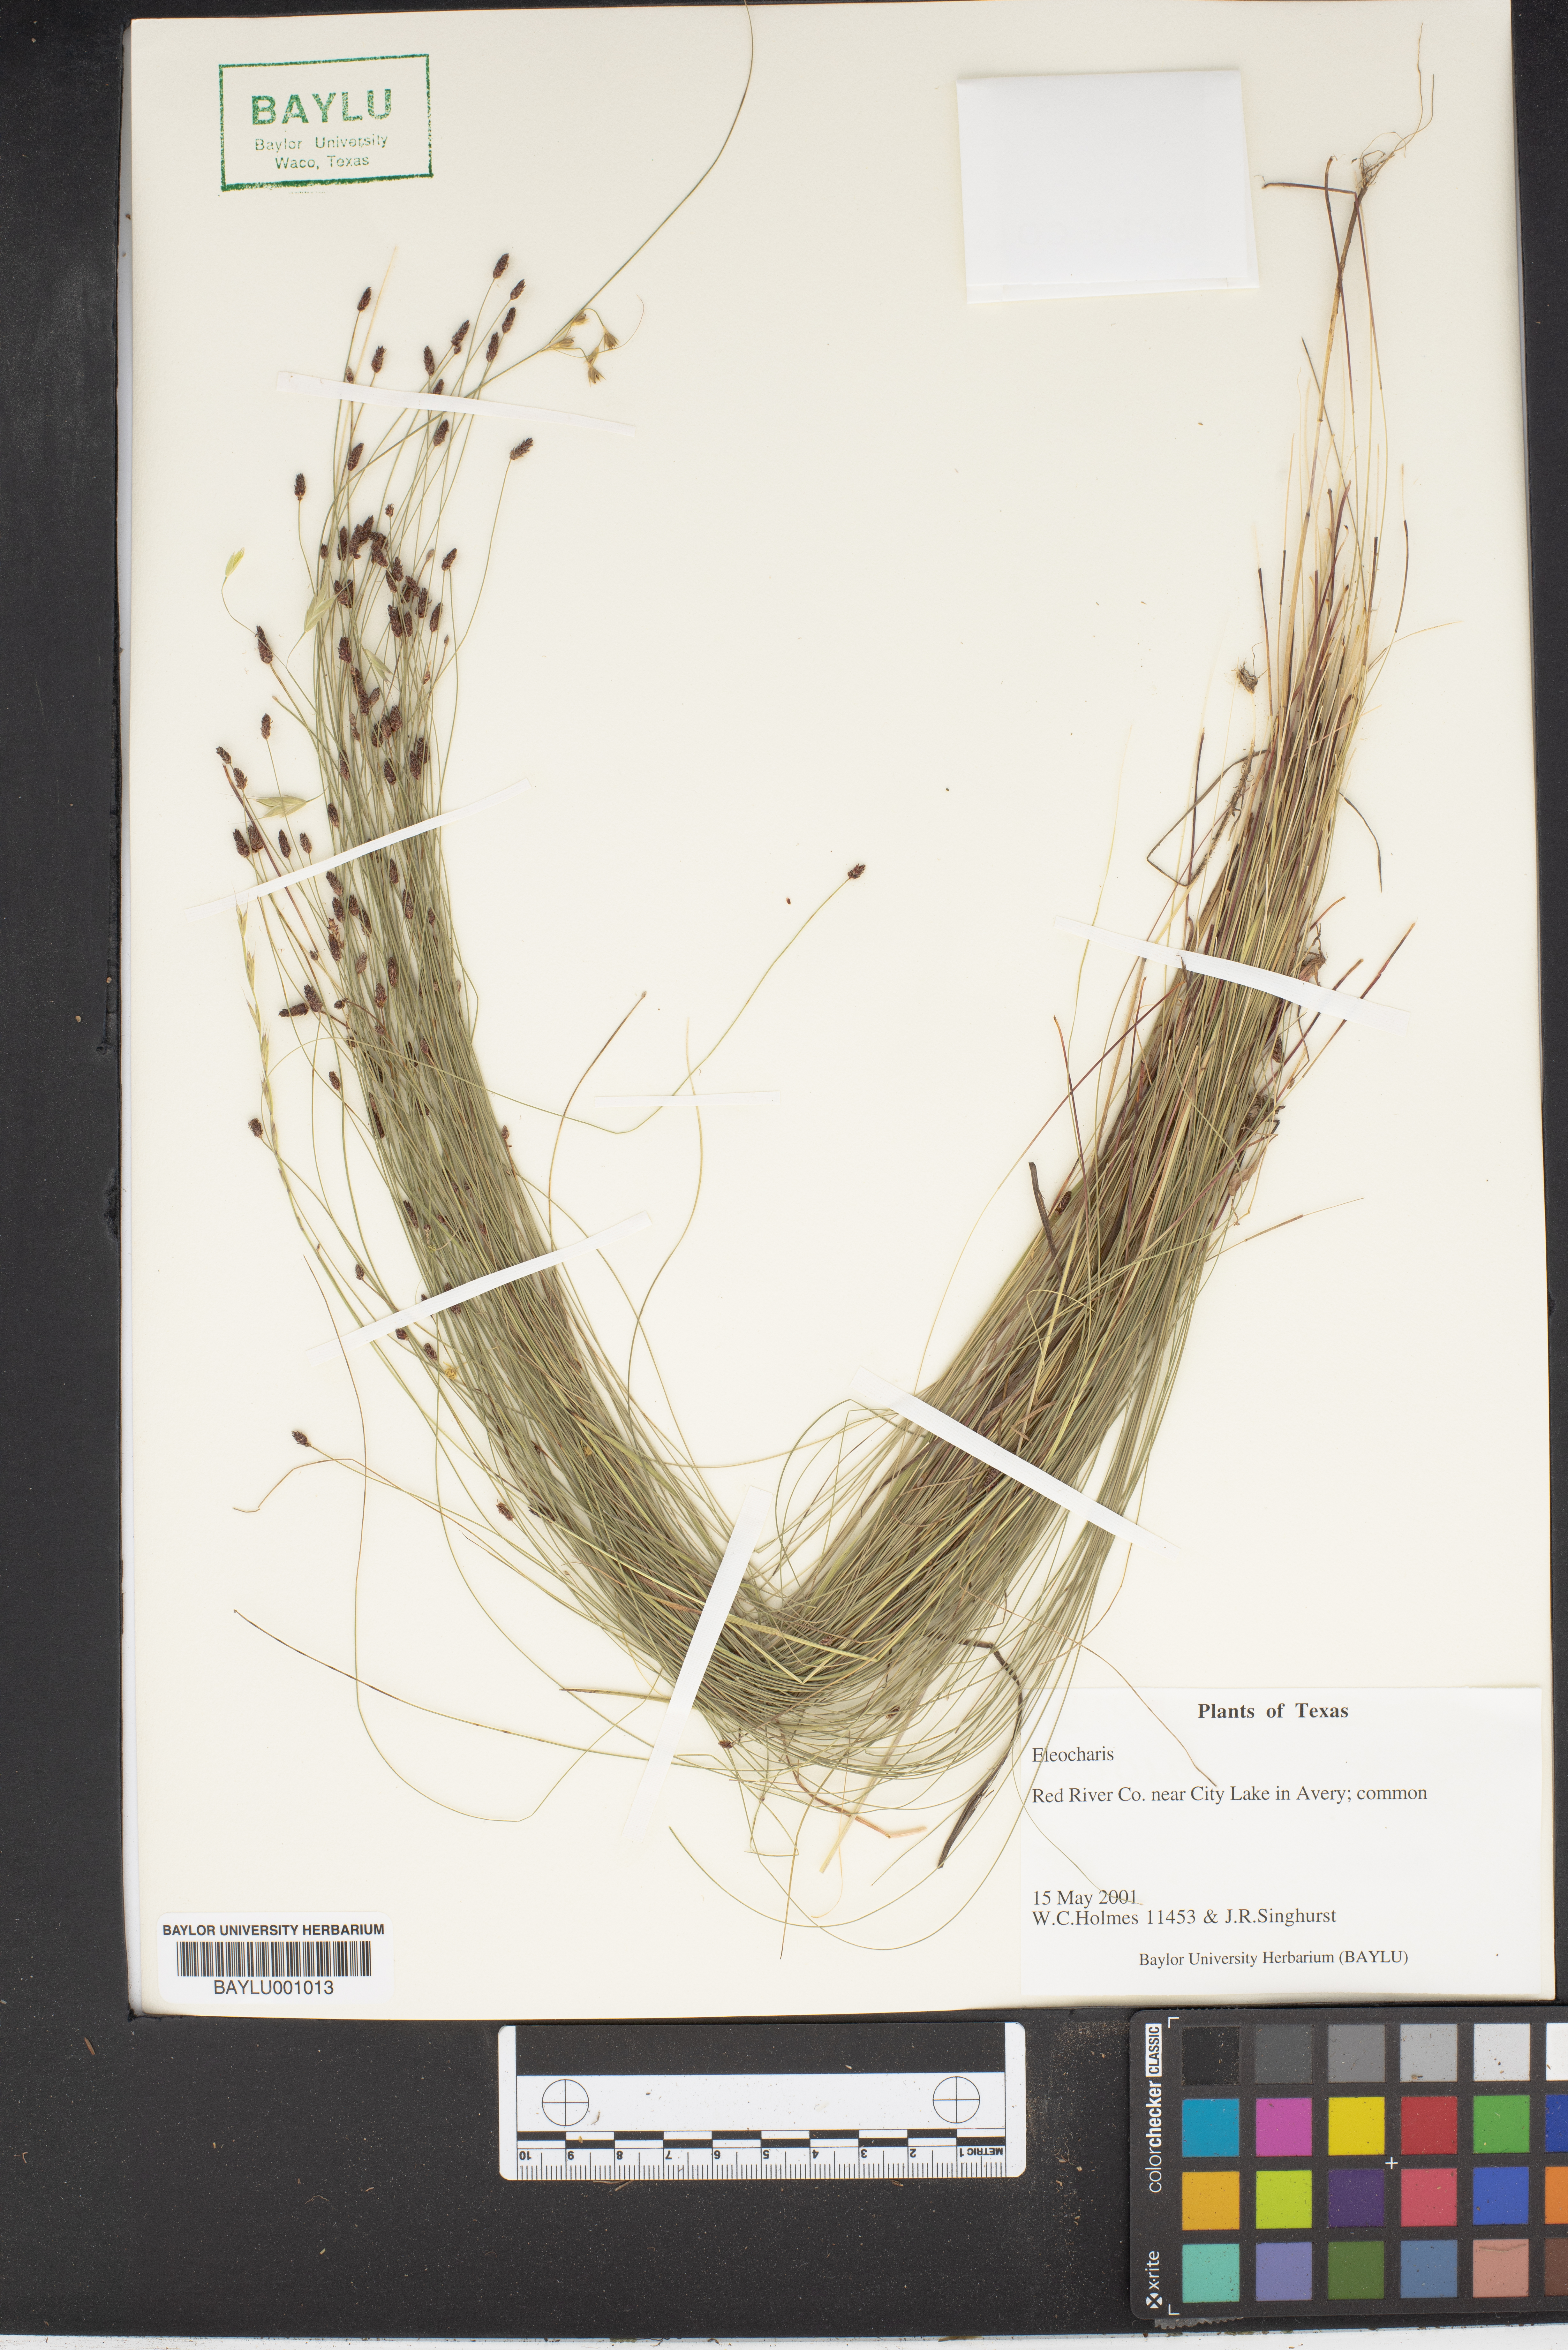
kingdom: Plantae
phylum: Tracheophyta
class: Liliopsida
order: Poales
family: Cyperaceae
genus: Eleocharis
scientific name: Eleocharis
